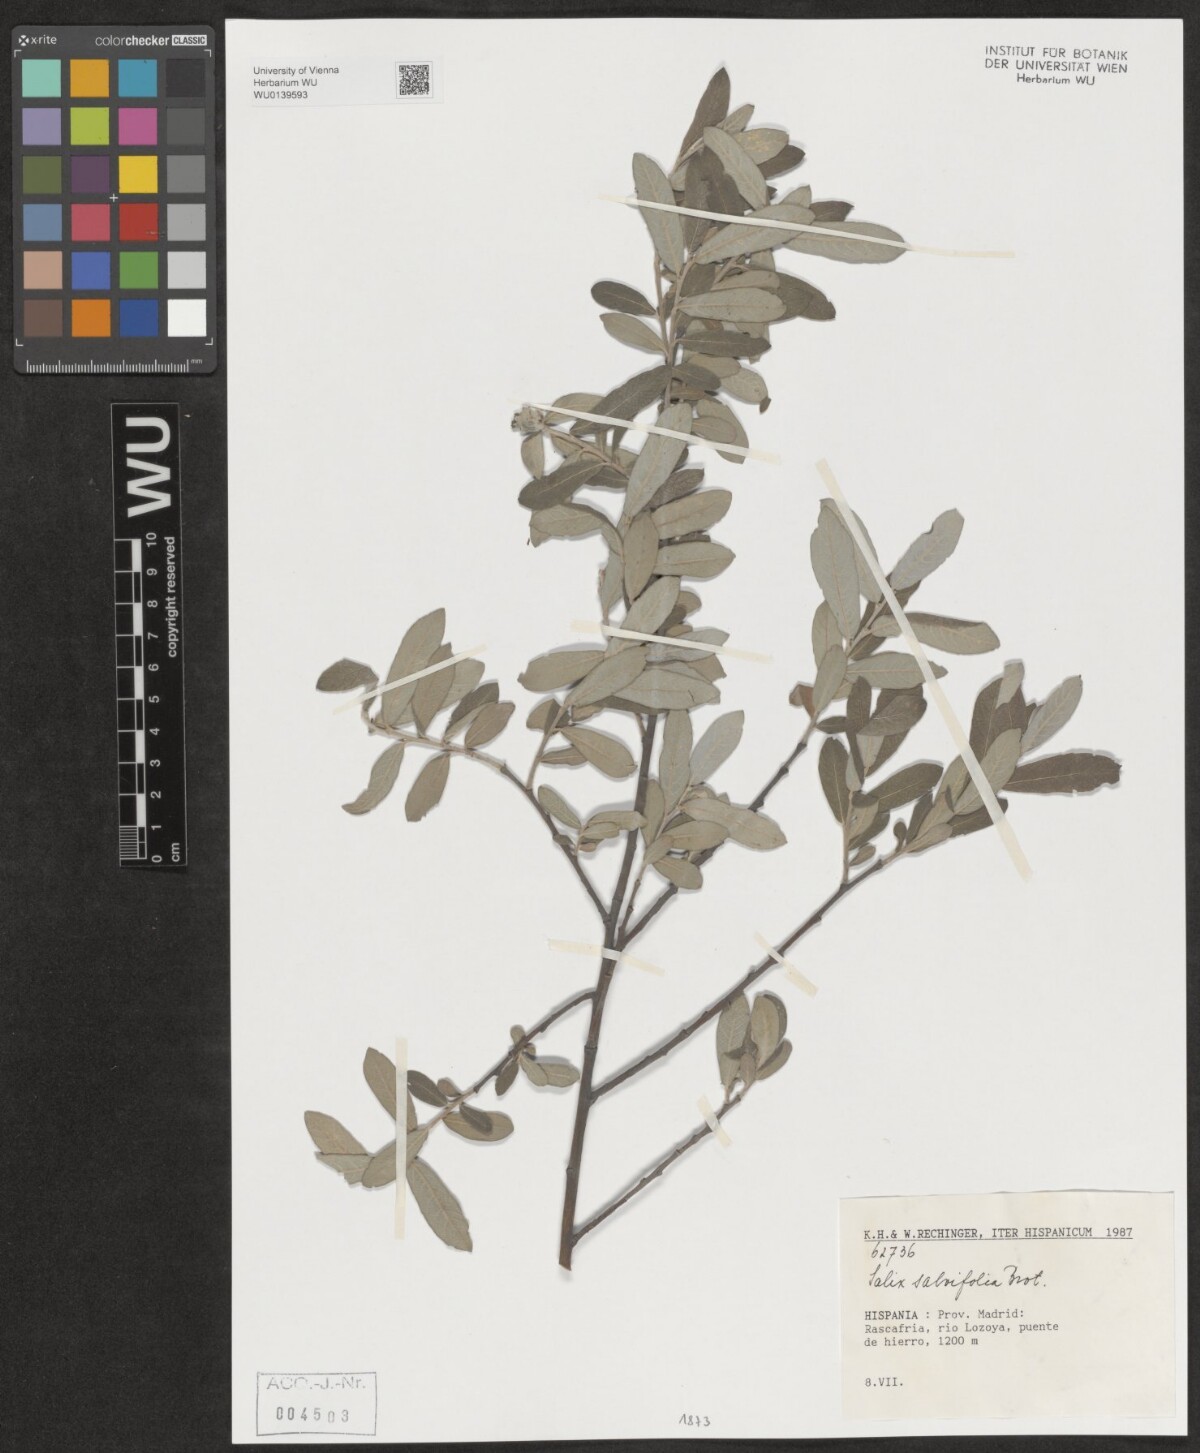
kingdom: Plantae
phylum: Tracheophyta
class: Magnoliopsida
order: Malpighiales
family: Salicaceae
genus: Salix
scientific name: Salix salviifolia
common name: Salvia-leaf willow
